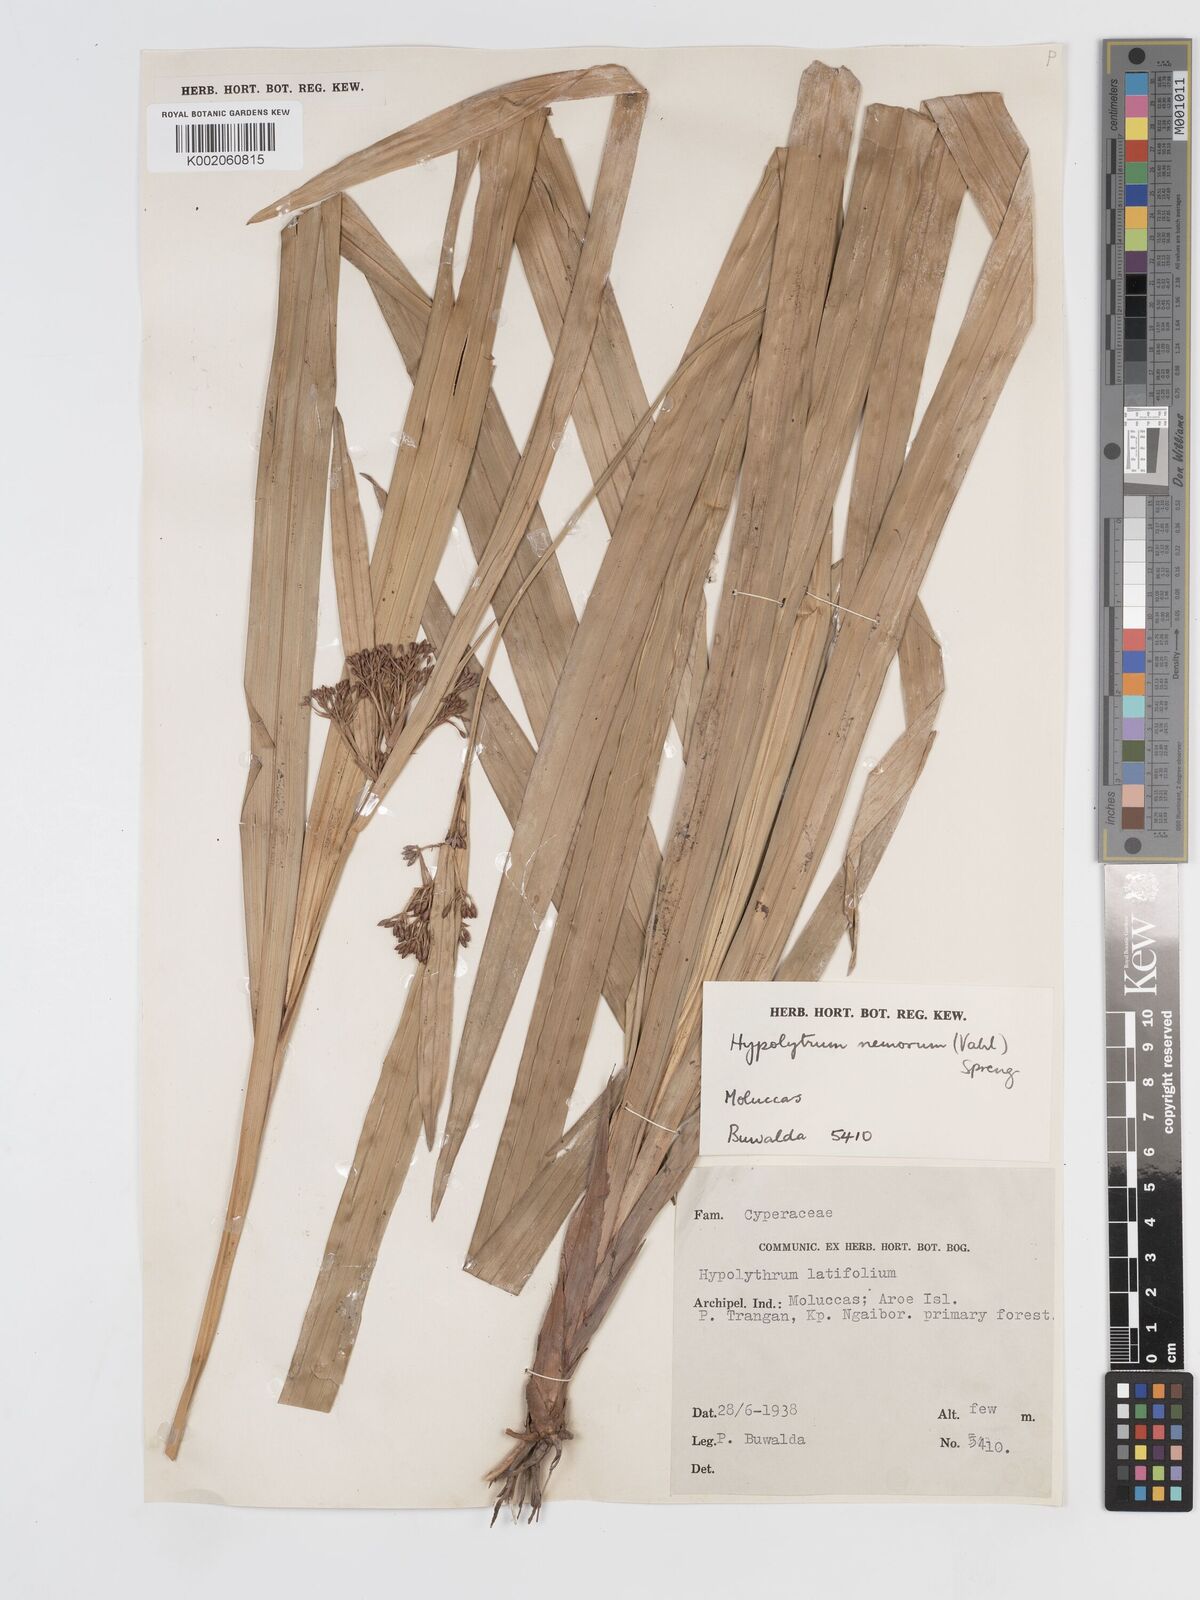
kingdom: Plantae
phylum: Tracheophyta
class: Liliopsida
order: Poales
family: Cyperaceae
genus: Hypolytrum
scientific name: Hypolytrum nemorum
